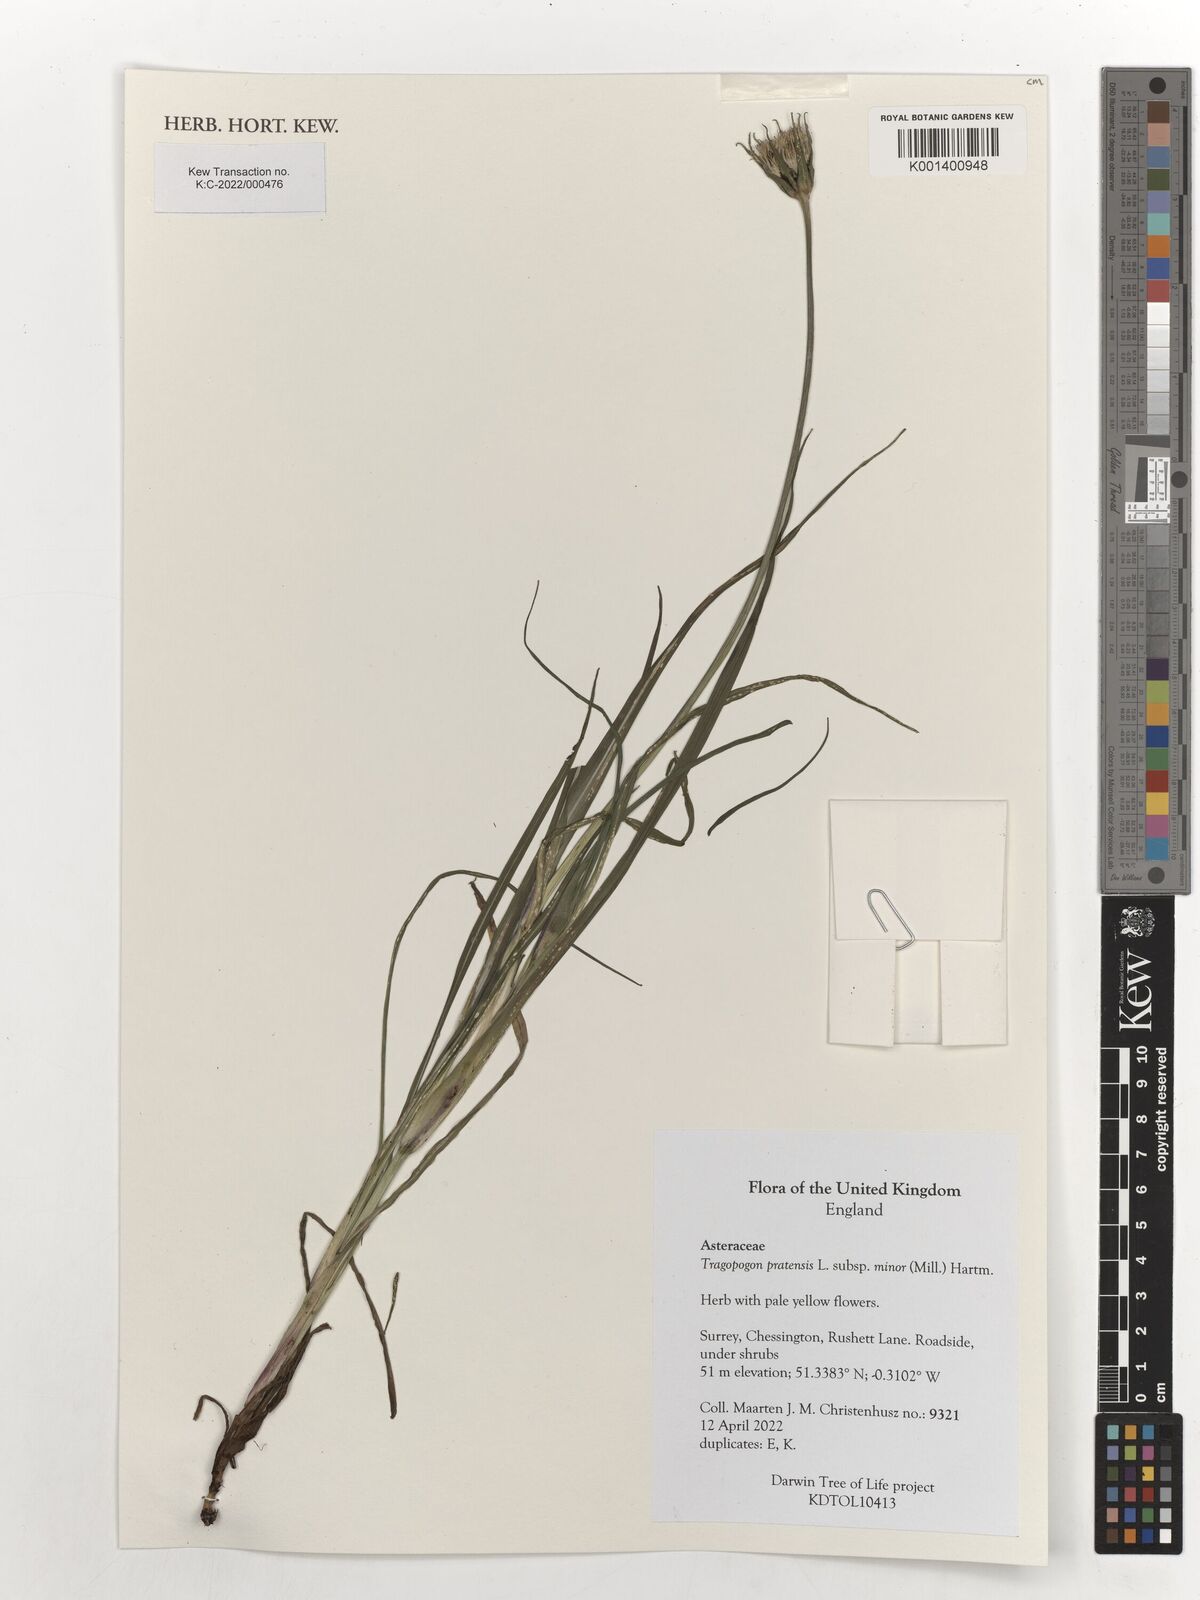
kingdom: Plantae
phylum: Tracheophyta
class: Magnoliopsida
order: Asterales
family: Asteraceae
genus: Tragopogon
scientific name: Tragopogon pratensis
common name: Goat's-beard
